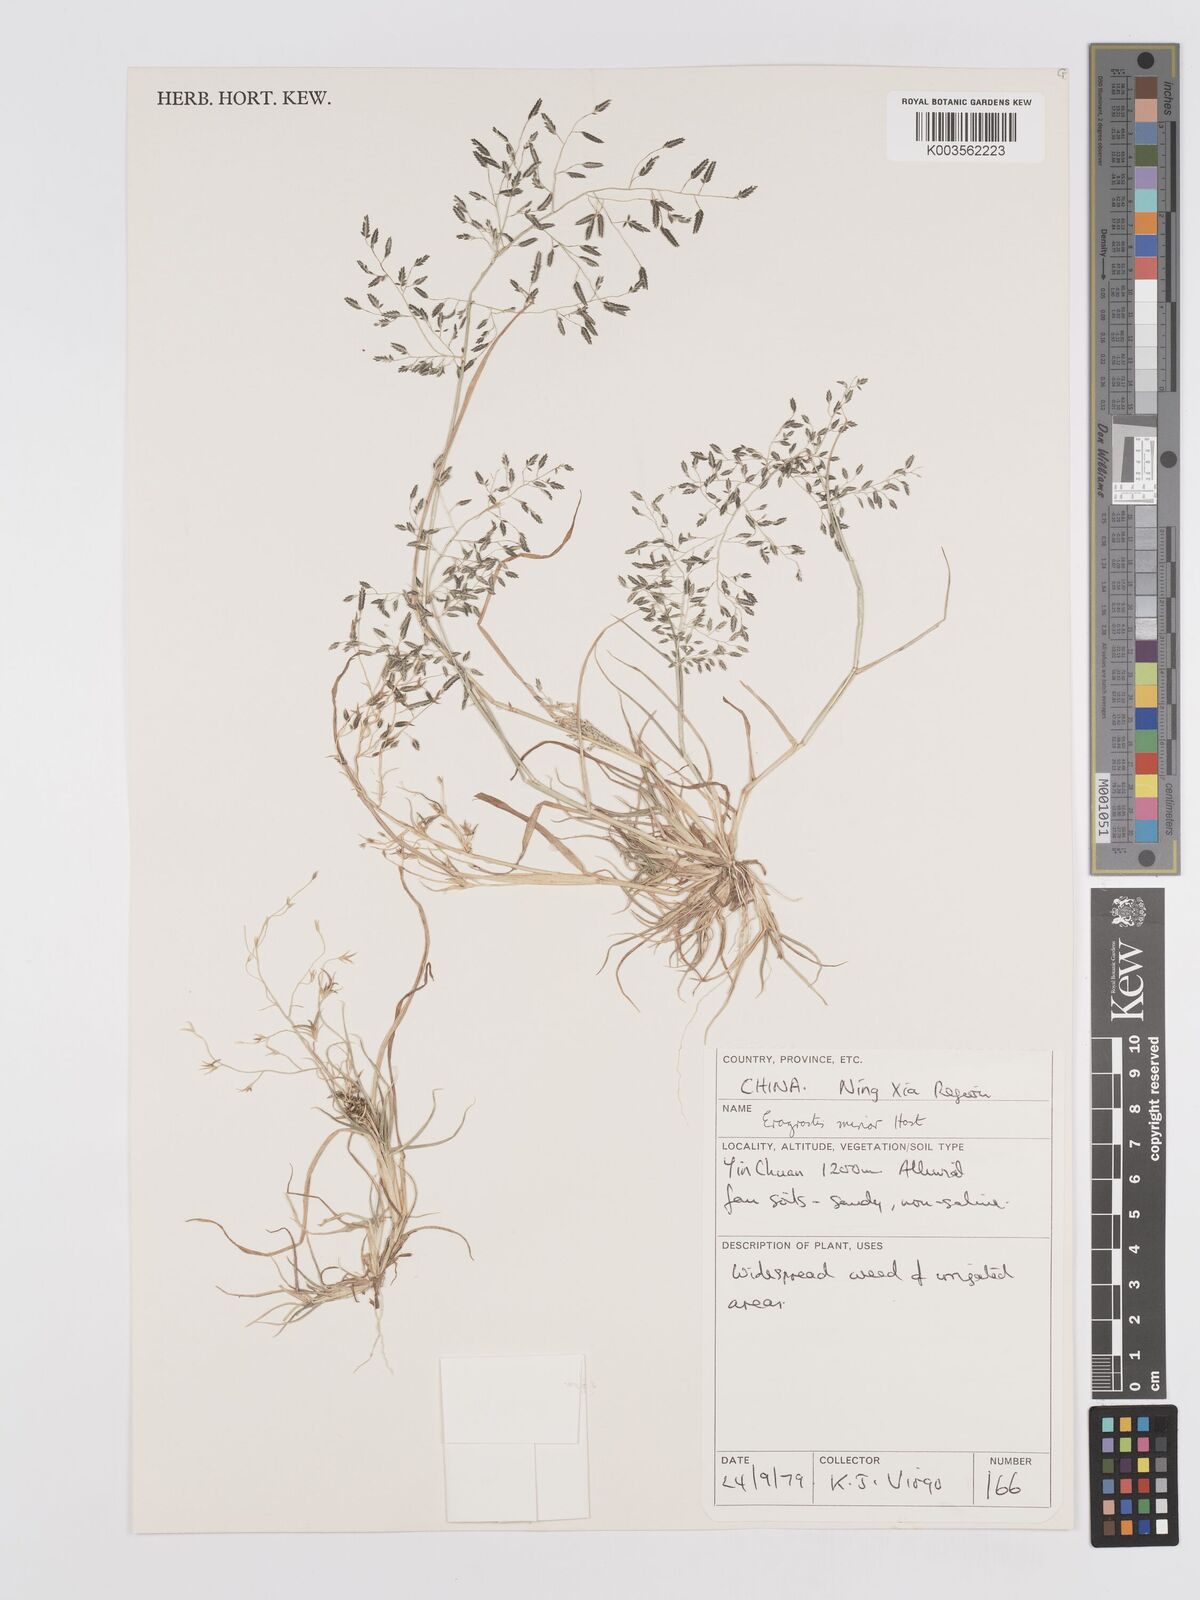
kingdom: Plantae
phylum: Tracheophyta
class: Liliopsida
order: Poales
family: Poaceae
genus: Eragrostis
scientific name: Eragrostis minor
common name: Small love-grass
